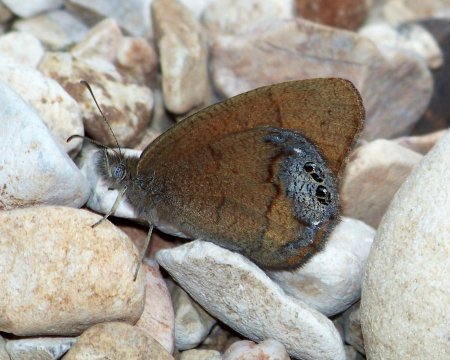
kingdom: Animalia
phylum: Arthropoda
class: Insecta
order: Lepidoptera
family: Nymphalidae
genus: Euptychia
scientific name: Euptychia Cyllopsis pertepida
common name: Canyonland Satyr
